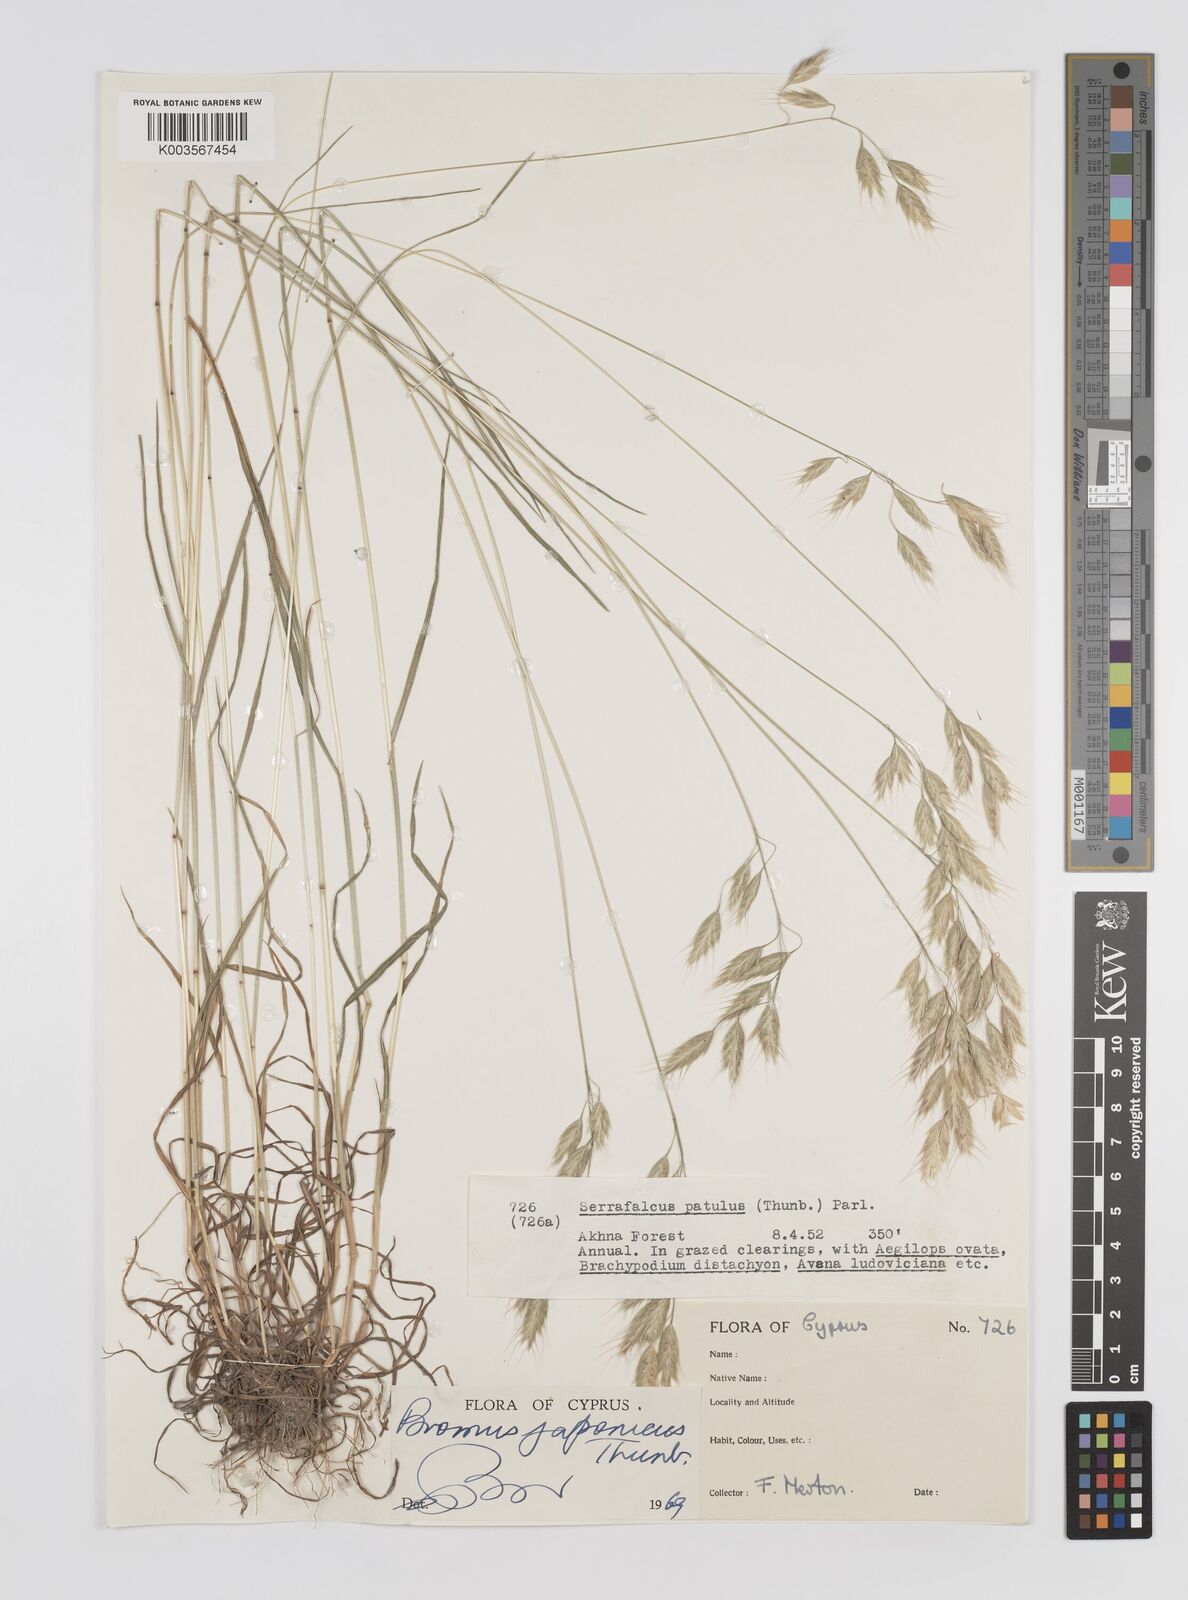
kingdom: Plantae
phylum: Tracheophyta
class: Liliopsida
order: Poales
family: Poaceae
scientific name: Poaceae
